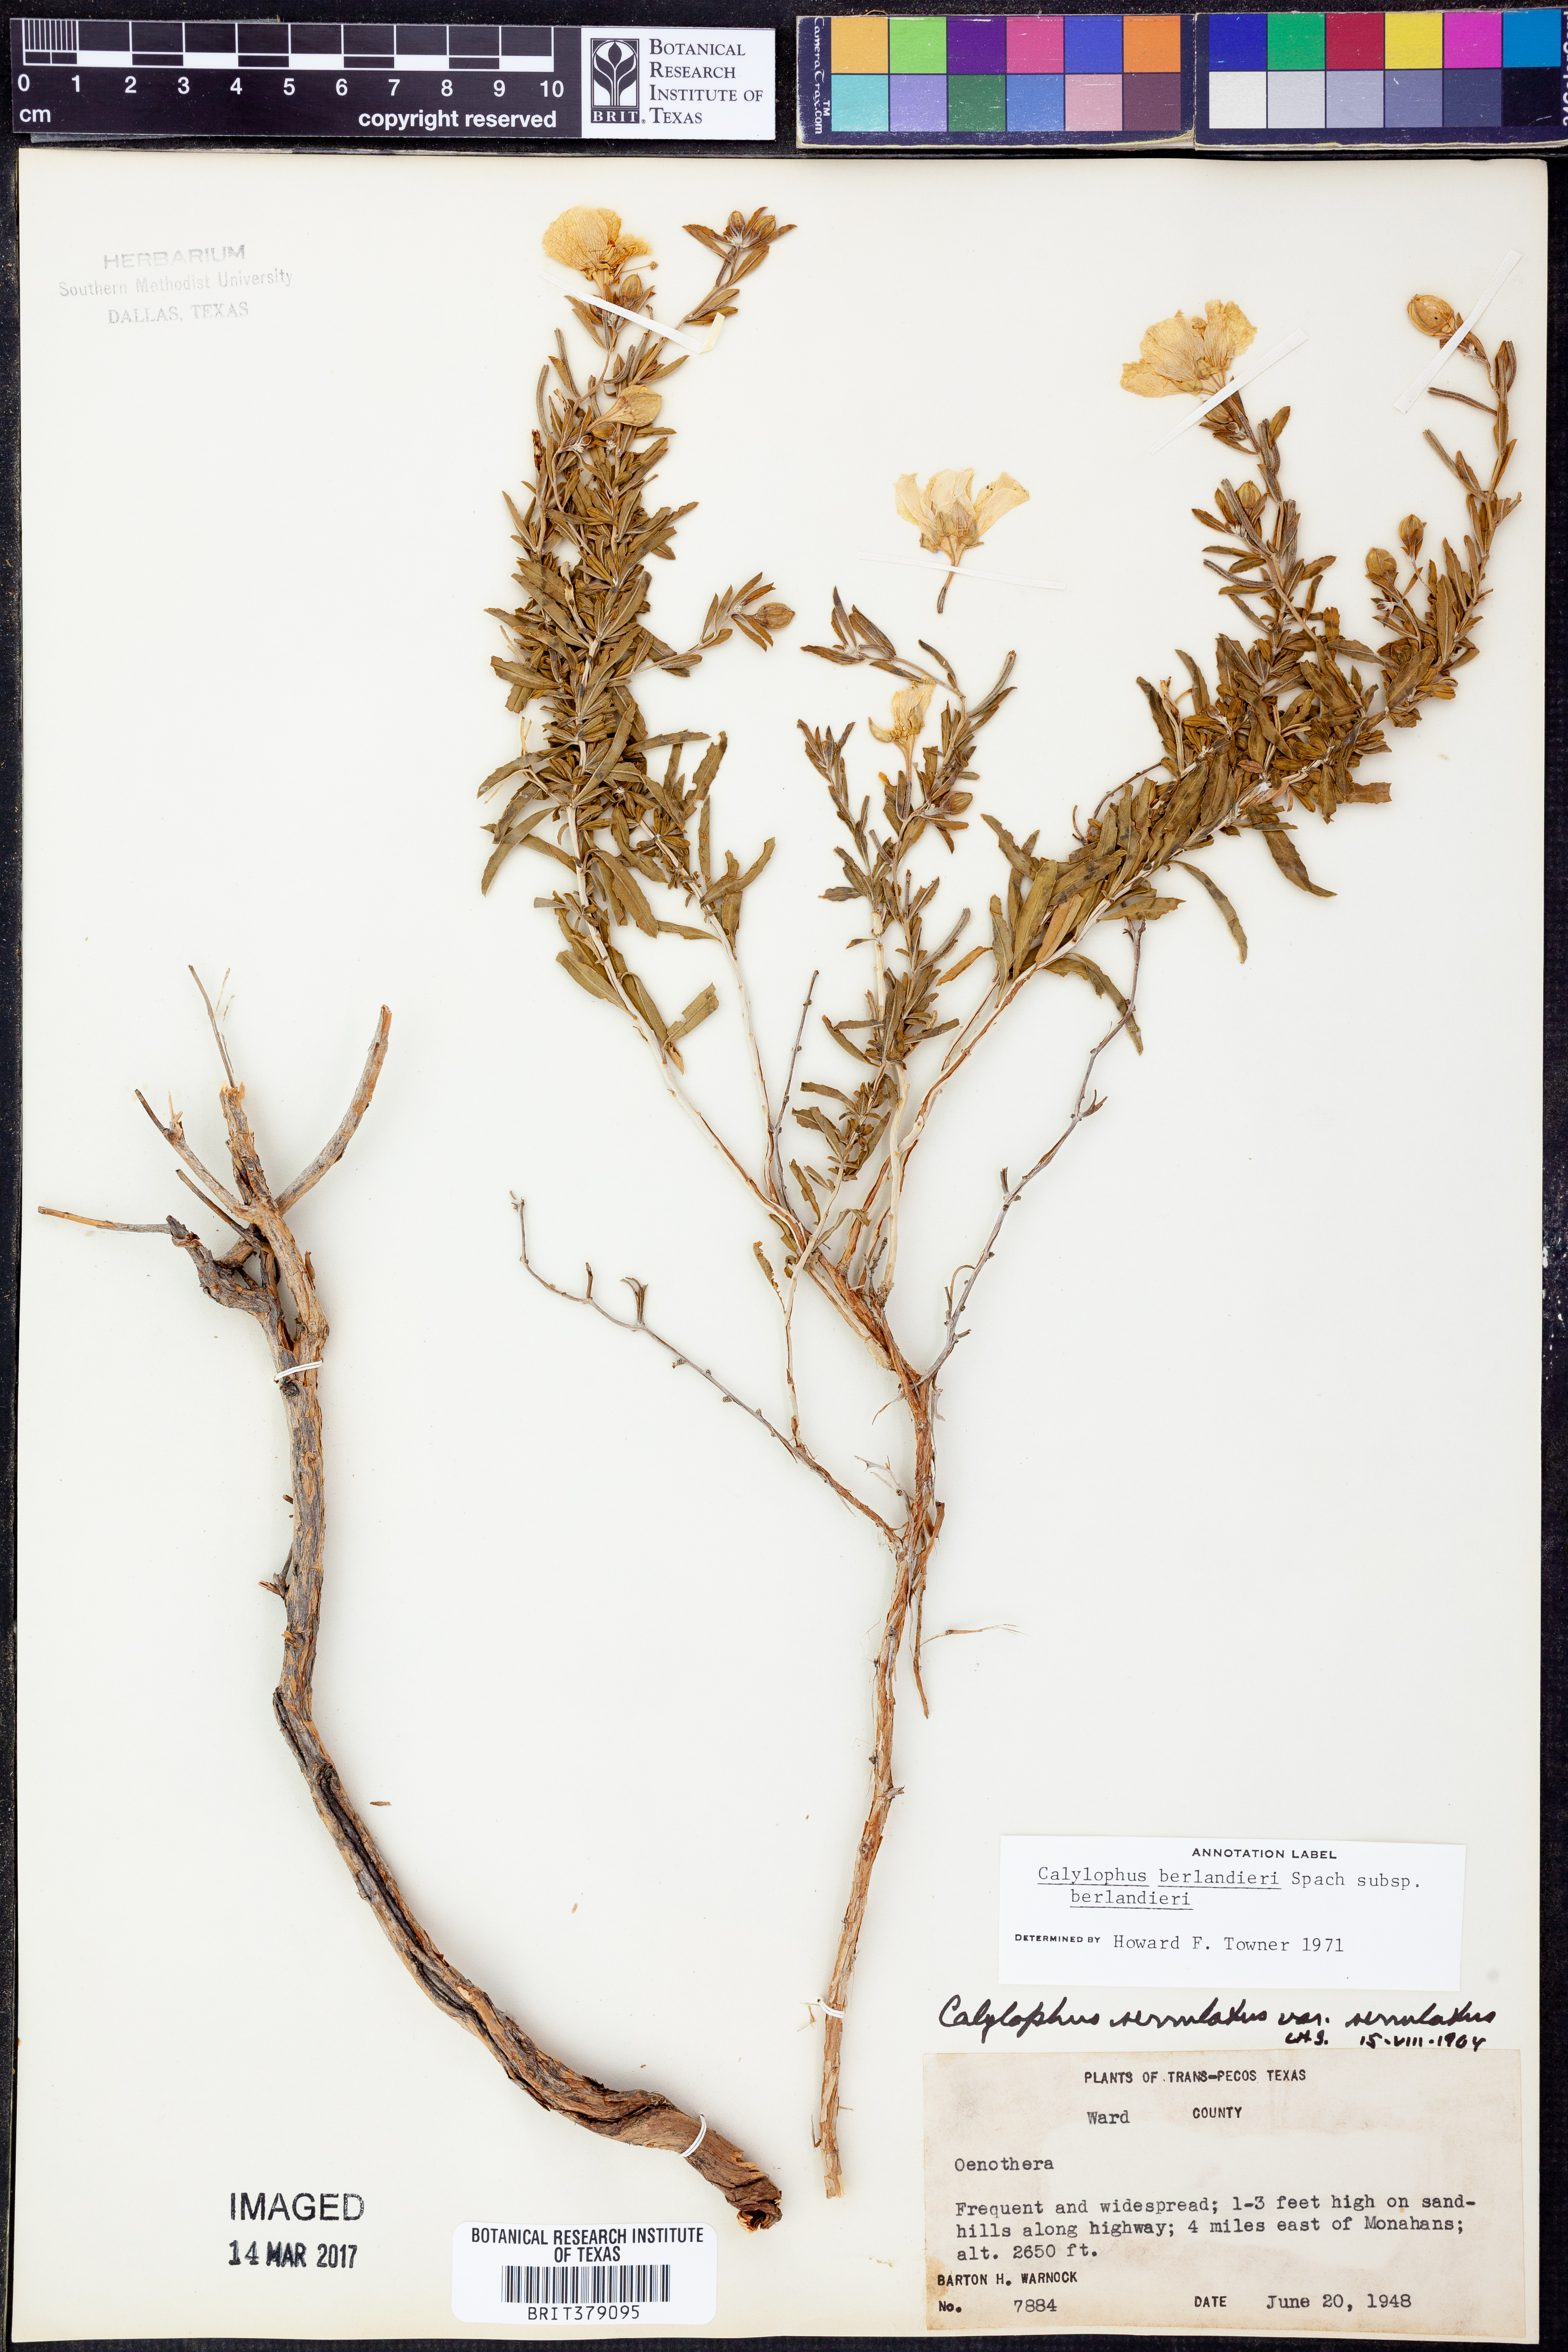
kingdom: Plantae
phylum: Tracheophyta
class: Magnoliopsida
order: Myrtales
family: Onagraceae
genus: Oenothera
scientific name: Oenothera capillifolia
